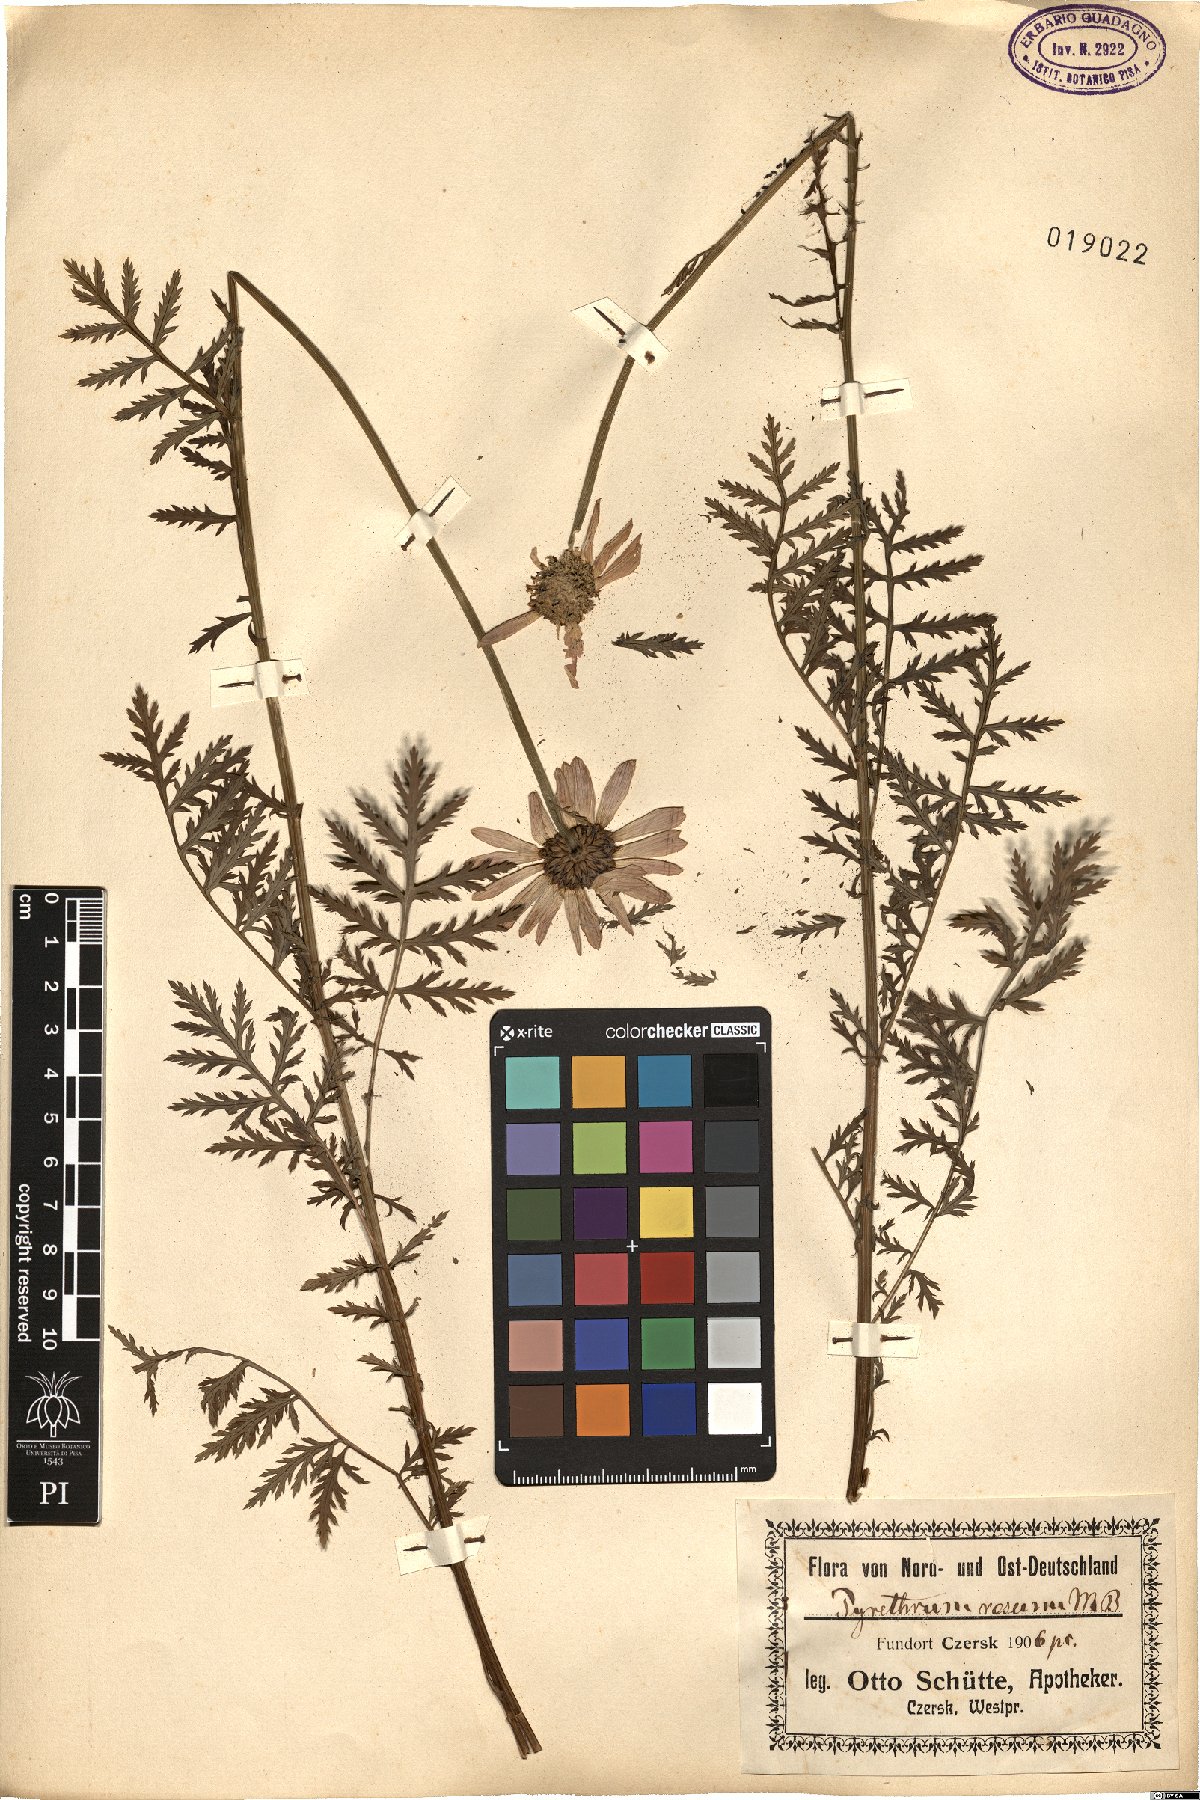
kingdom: Plantae
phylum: Tracheophyta
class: Magnoliopsida
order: Asterales
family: Asteraceae
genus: Tanacetum
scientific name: Tanacetum coccineum
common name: Pyrethum daisy
